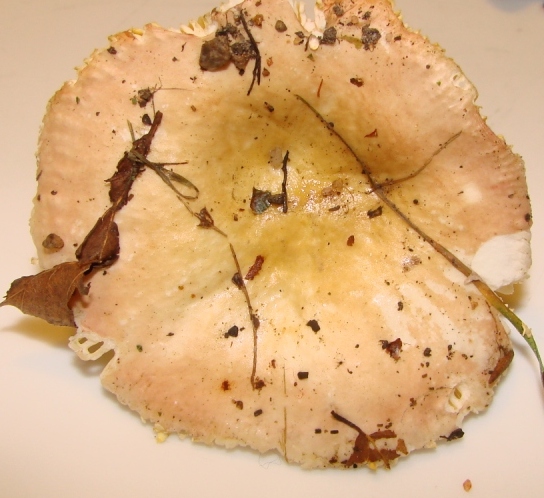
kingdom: Fungi
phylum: Basidiomycota
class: Agaricomycetes
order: Russulales
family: Russulaceae
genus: Russula
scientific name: Russula veternosa
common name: blødkødet skørhat
